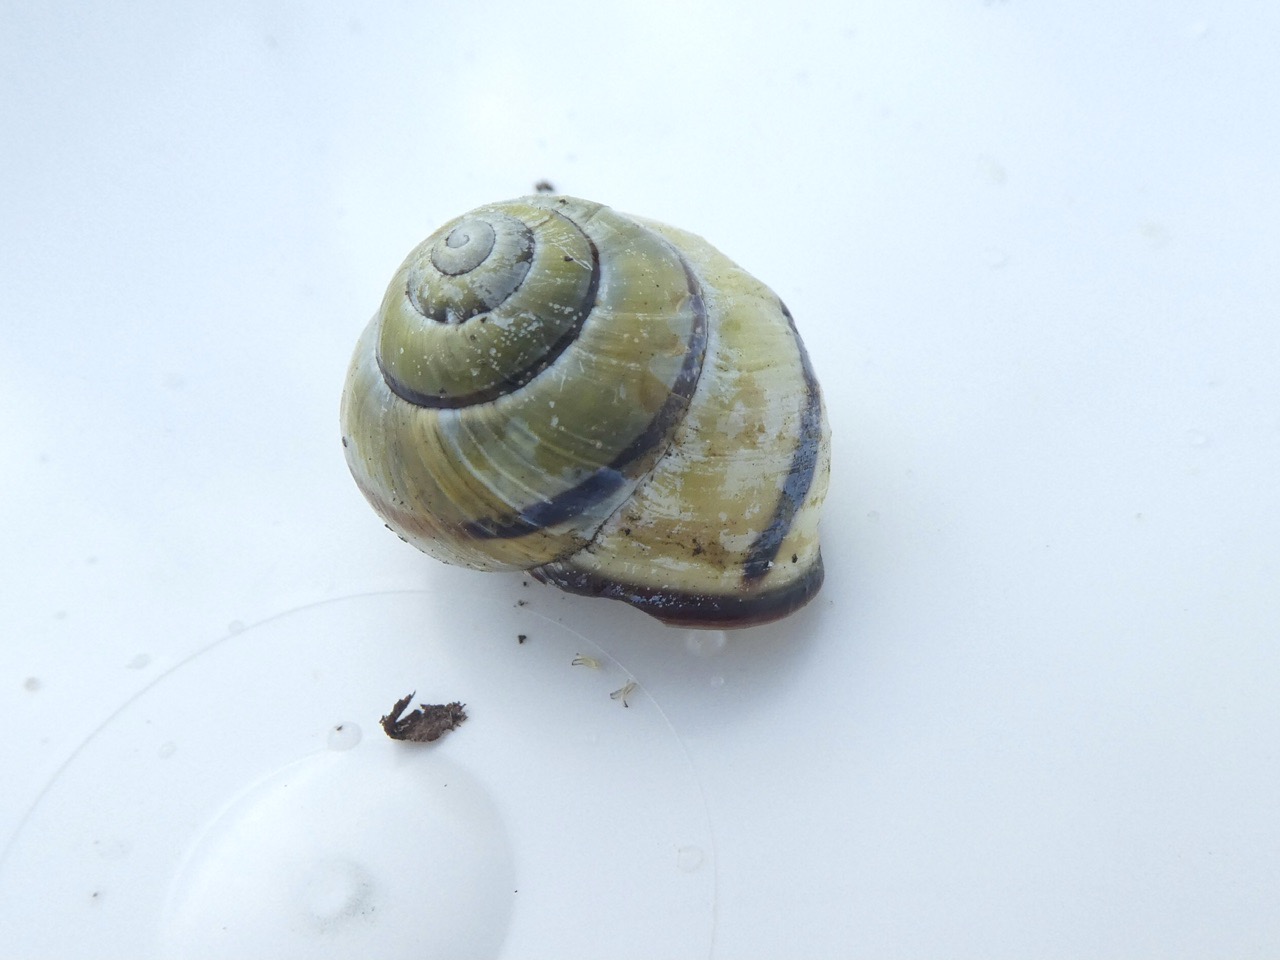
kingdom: Animalia
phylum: Mollusca
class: Gastropoda
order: Stylommatophora
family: Helicidae
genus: Cepaea
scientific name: Cepaea nemoralis
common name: Lundsnegl
